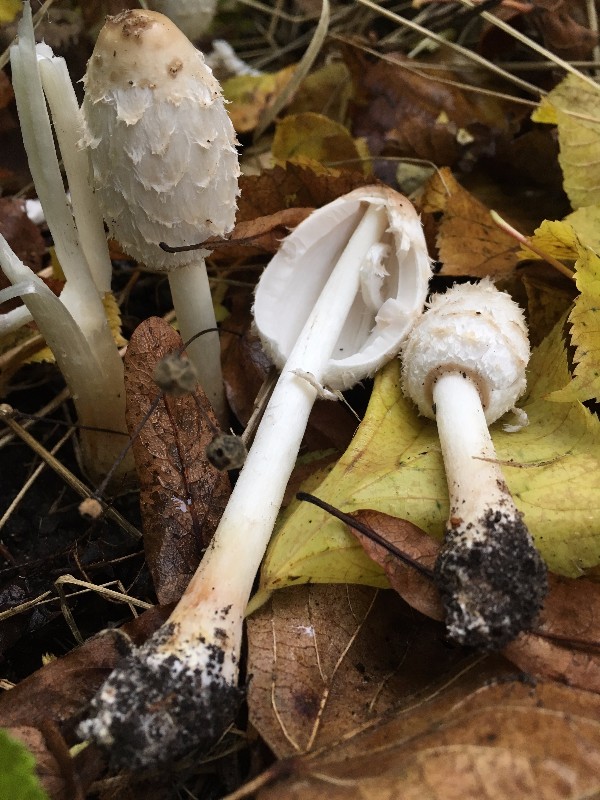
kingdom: Fungi
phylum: Basidiomycota
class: Agaricomycetes
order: Agaricales
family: Agaricaceae
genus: Coprinus
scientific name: Coprinus comatus
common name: stor parykhat
